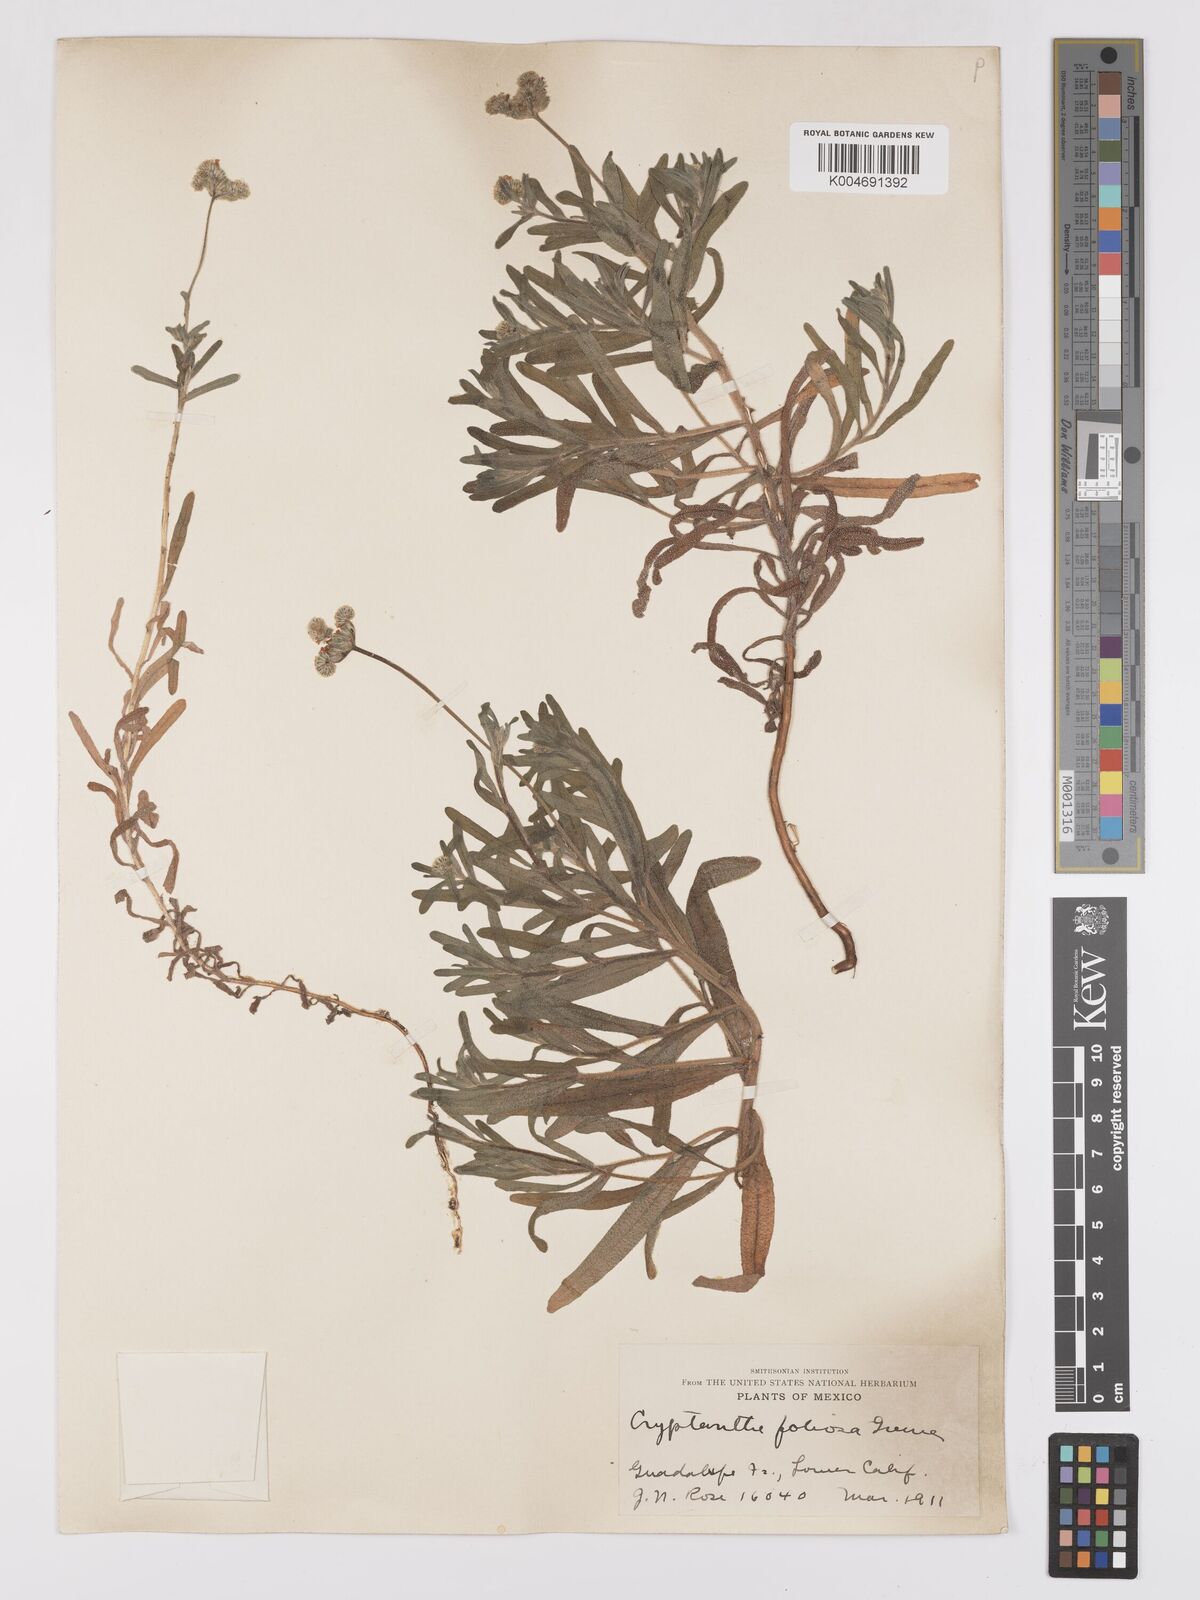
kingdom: Plantae
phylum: Tracheophyta
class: Magnoliopsida
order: Boraginales
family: Boraginaceae
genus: Cryptantha
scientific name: Cryptantha foliosa
